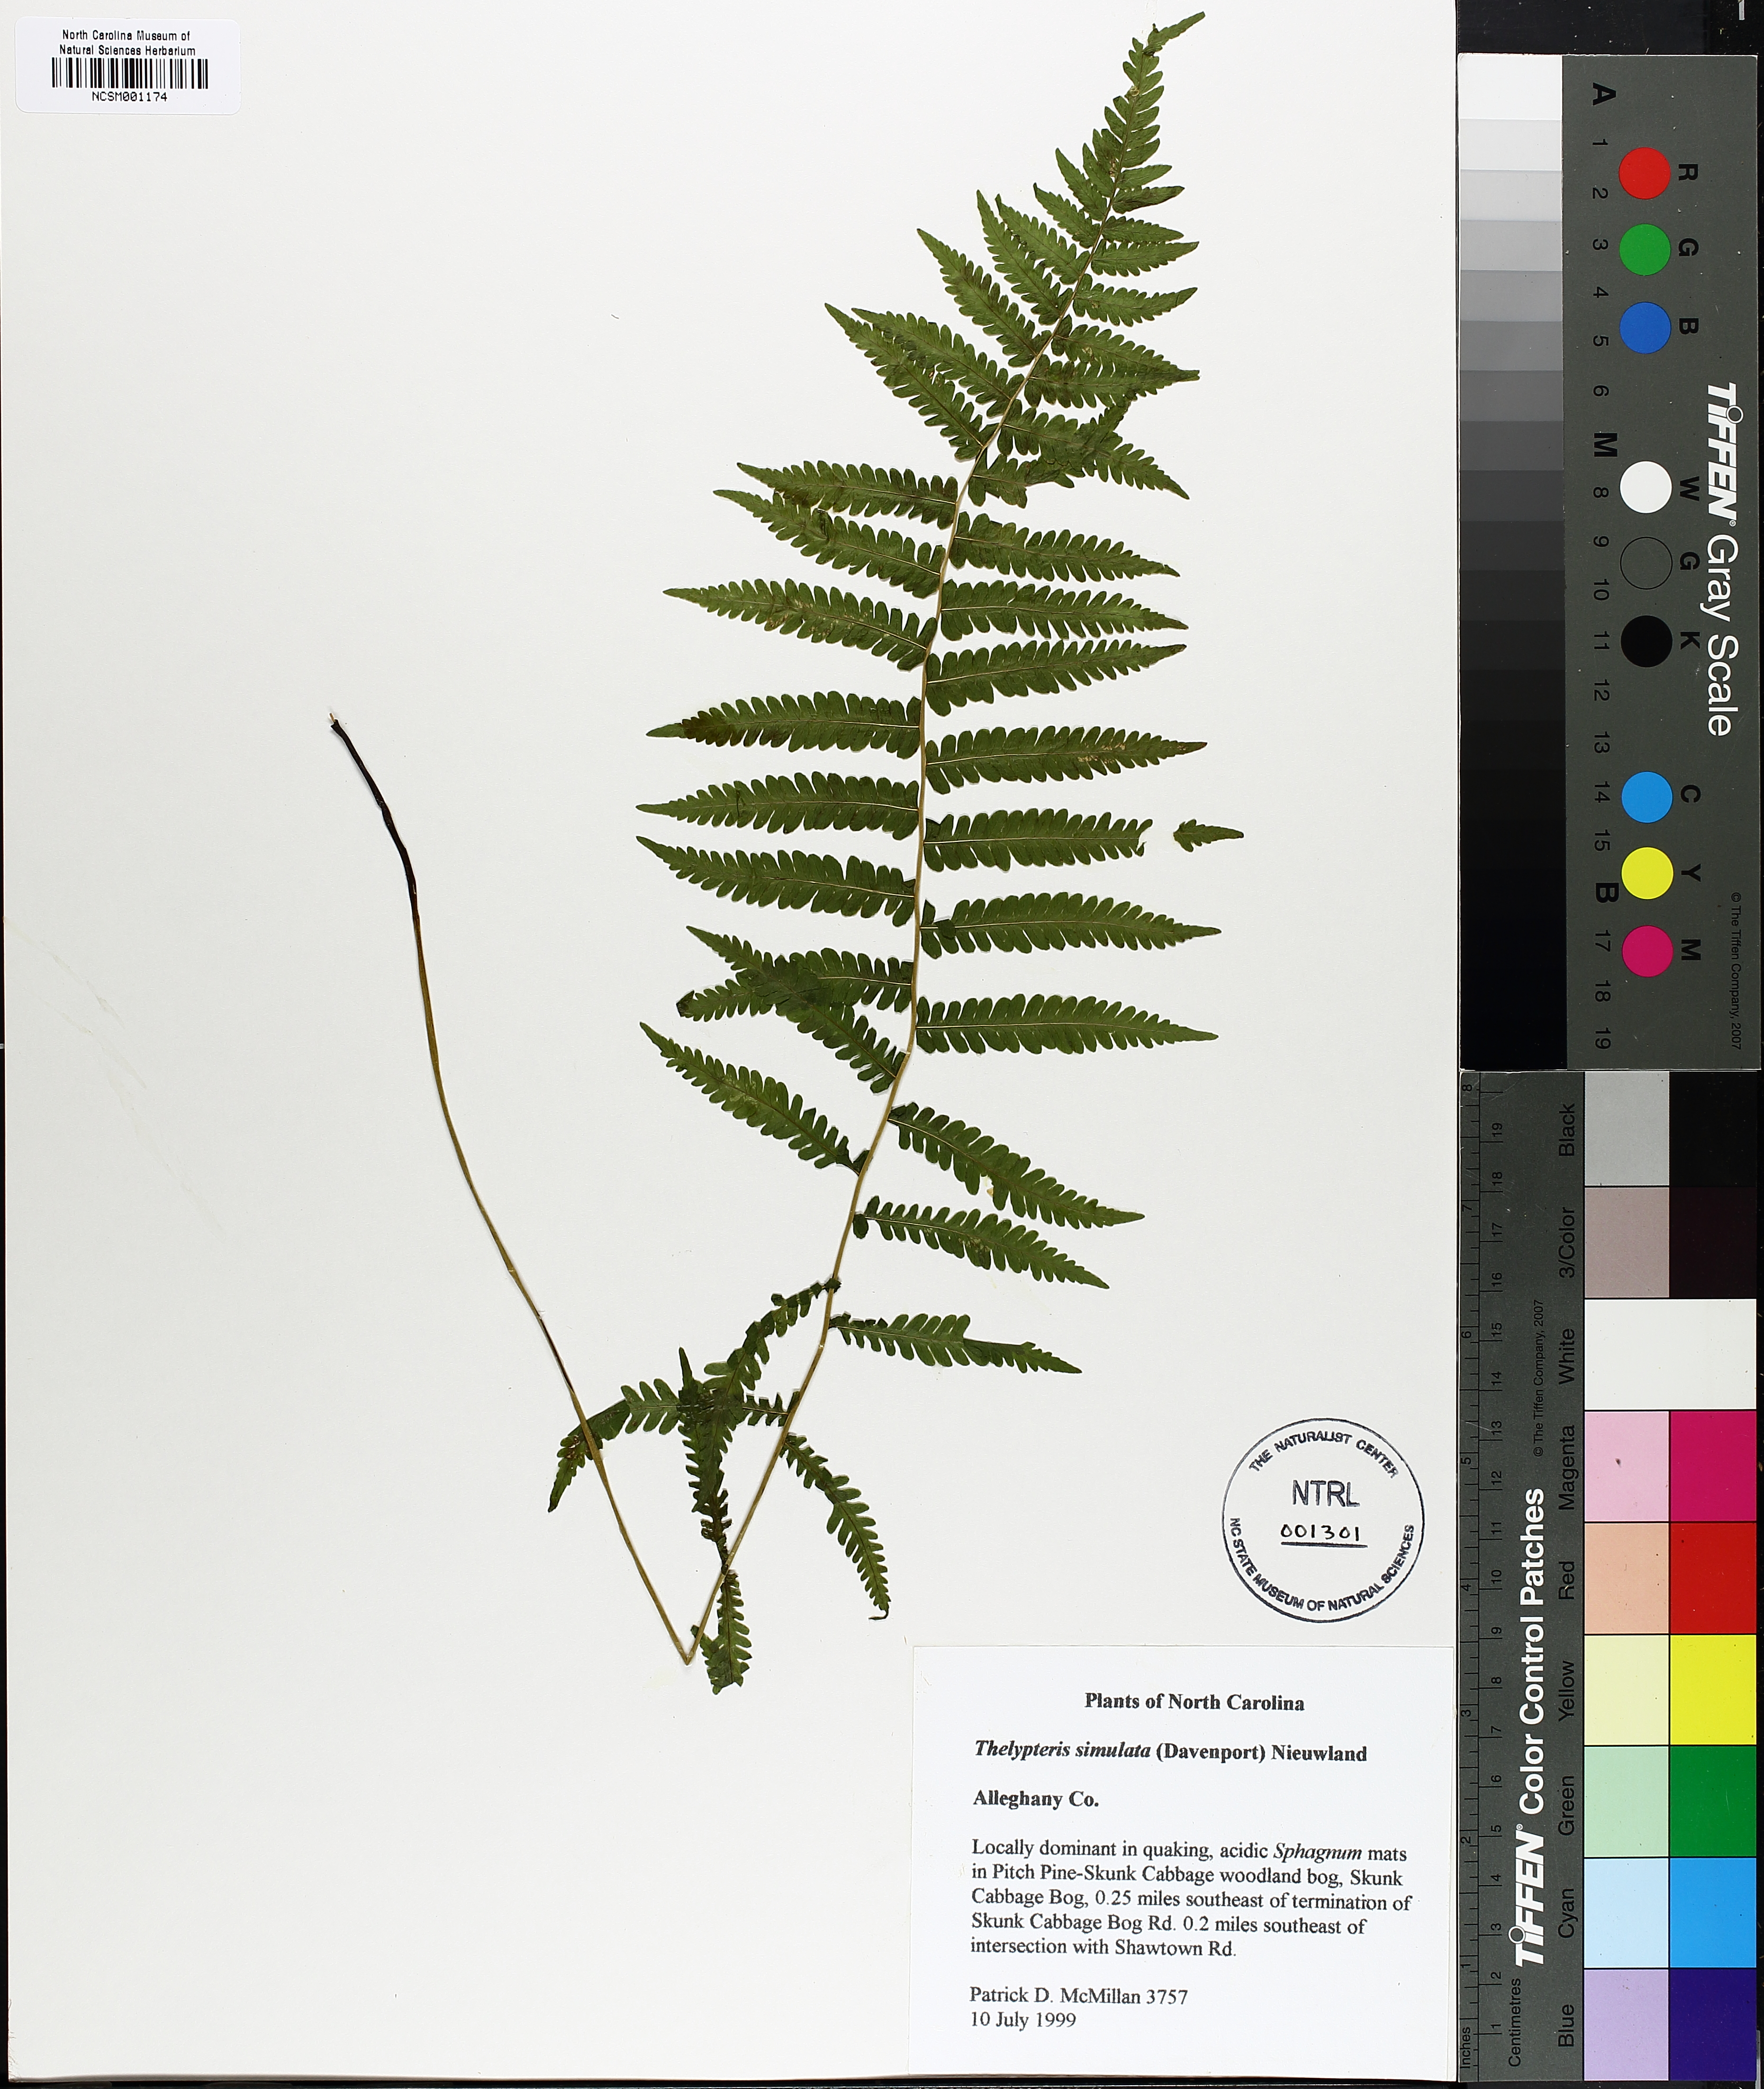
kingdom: Plantae
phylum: Tracheophyta
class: Polypodiopsida
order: Polypodiales
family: Thelypteridaceae
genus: Coryphopteris
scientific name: Coryphopteris simulata
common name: Bog fern
